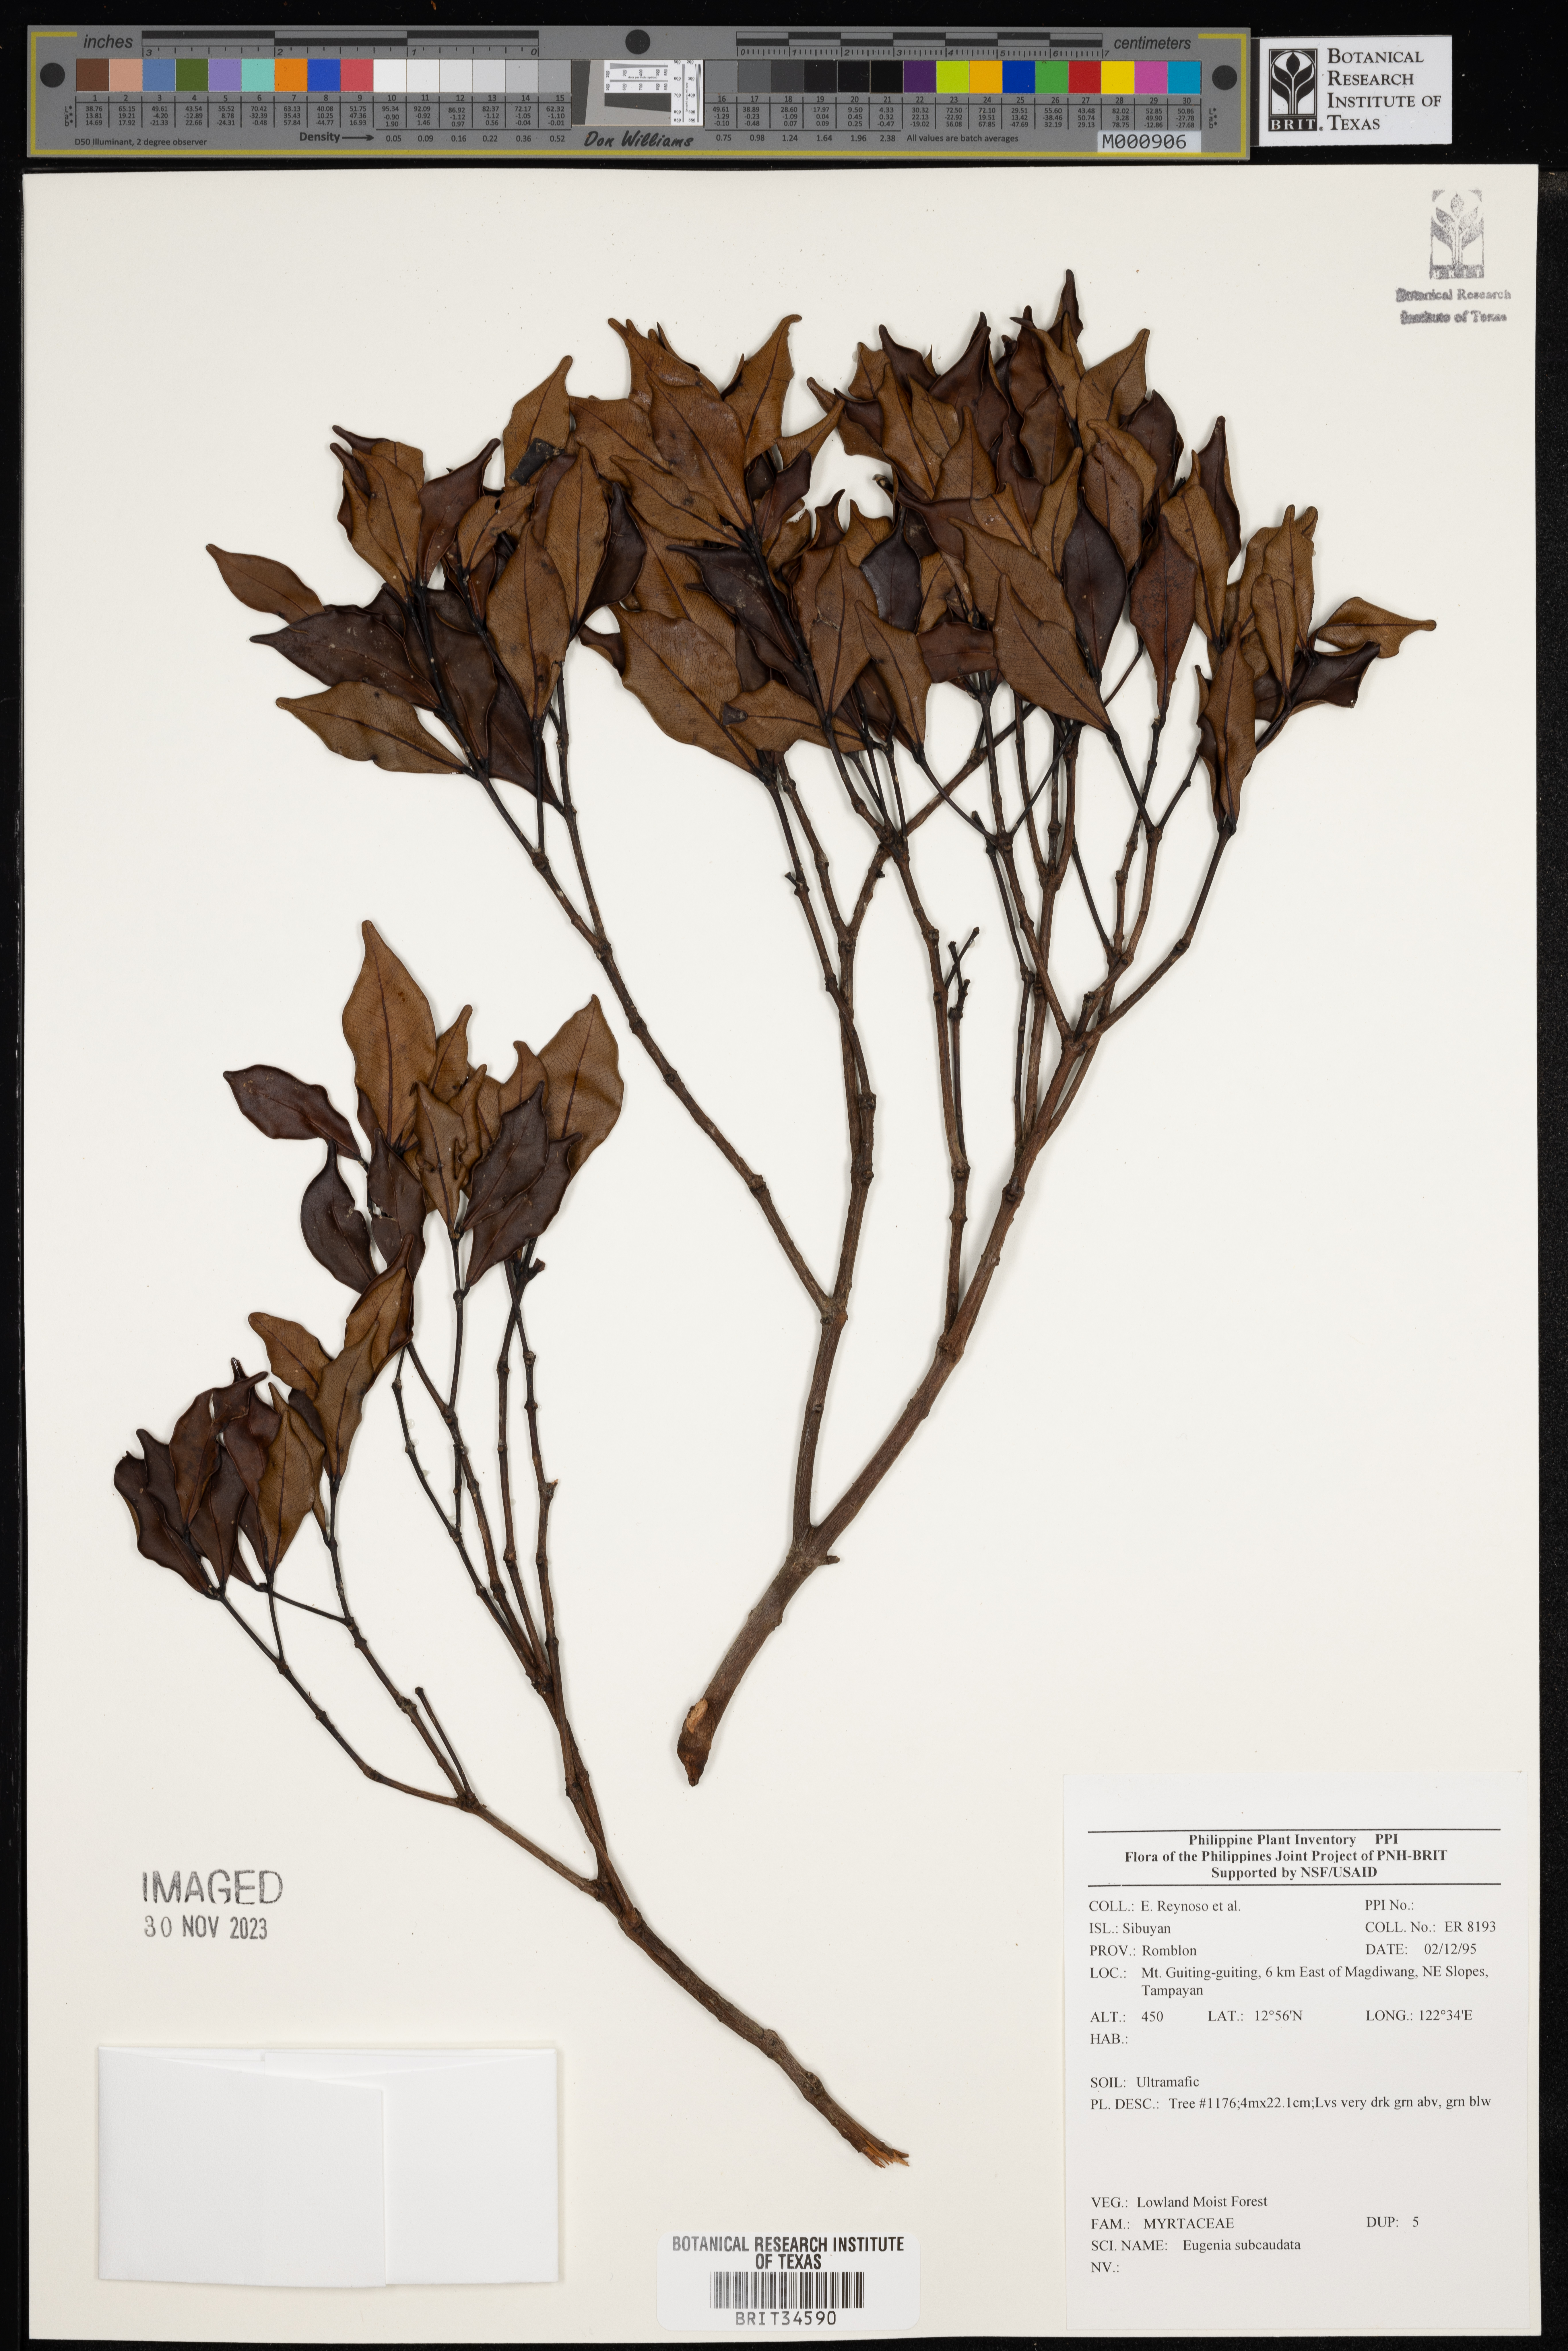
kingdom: Plantae
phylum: Tracheophyta
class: Magnoliopsida
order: Myrtales
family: Myrtaceae
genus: Eugenia
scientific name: Eugenia
